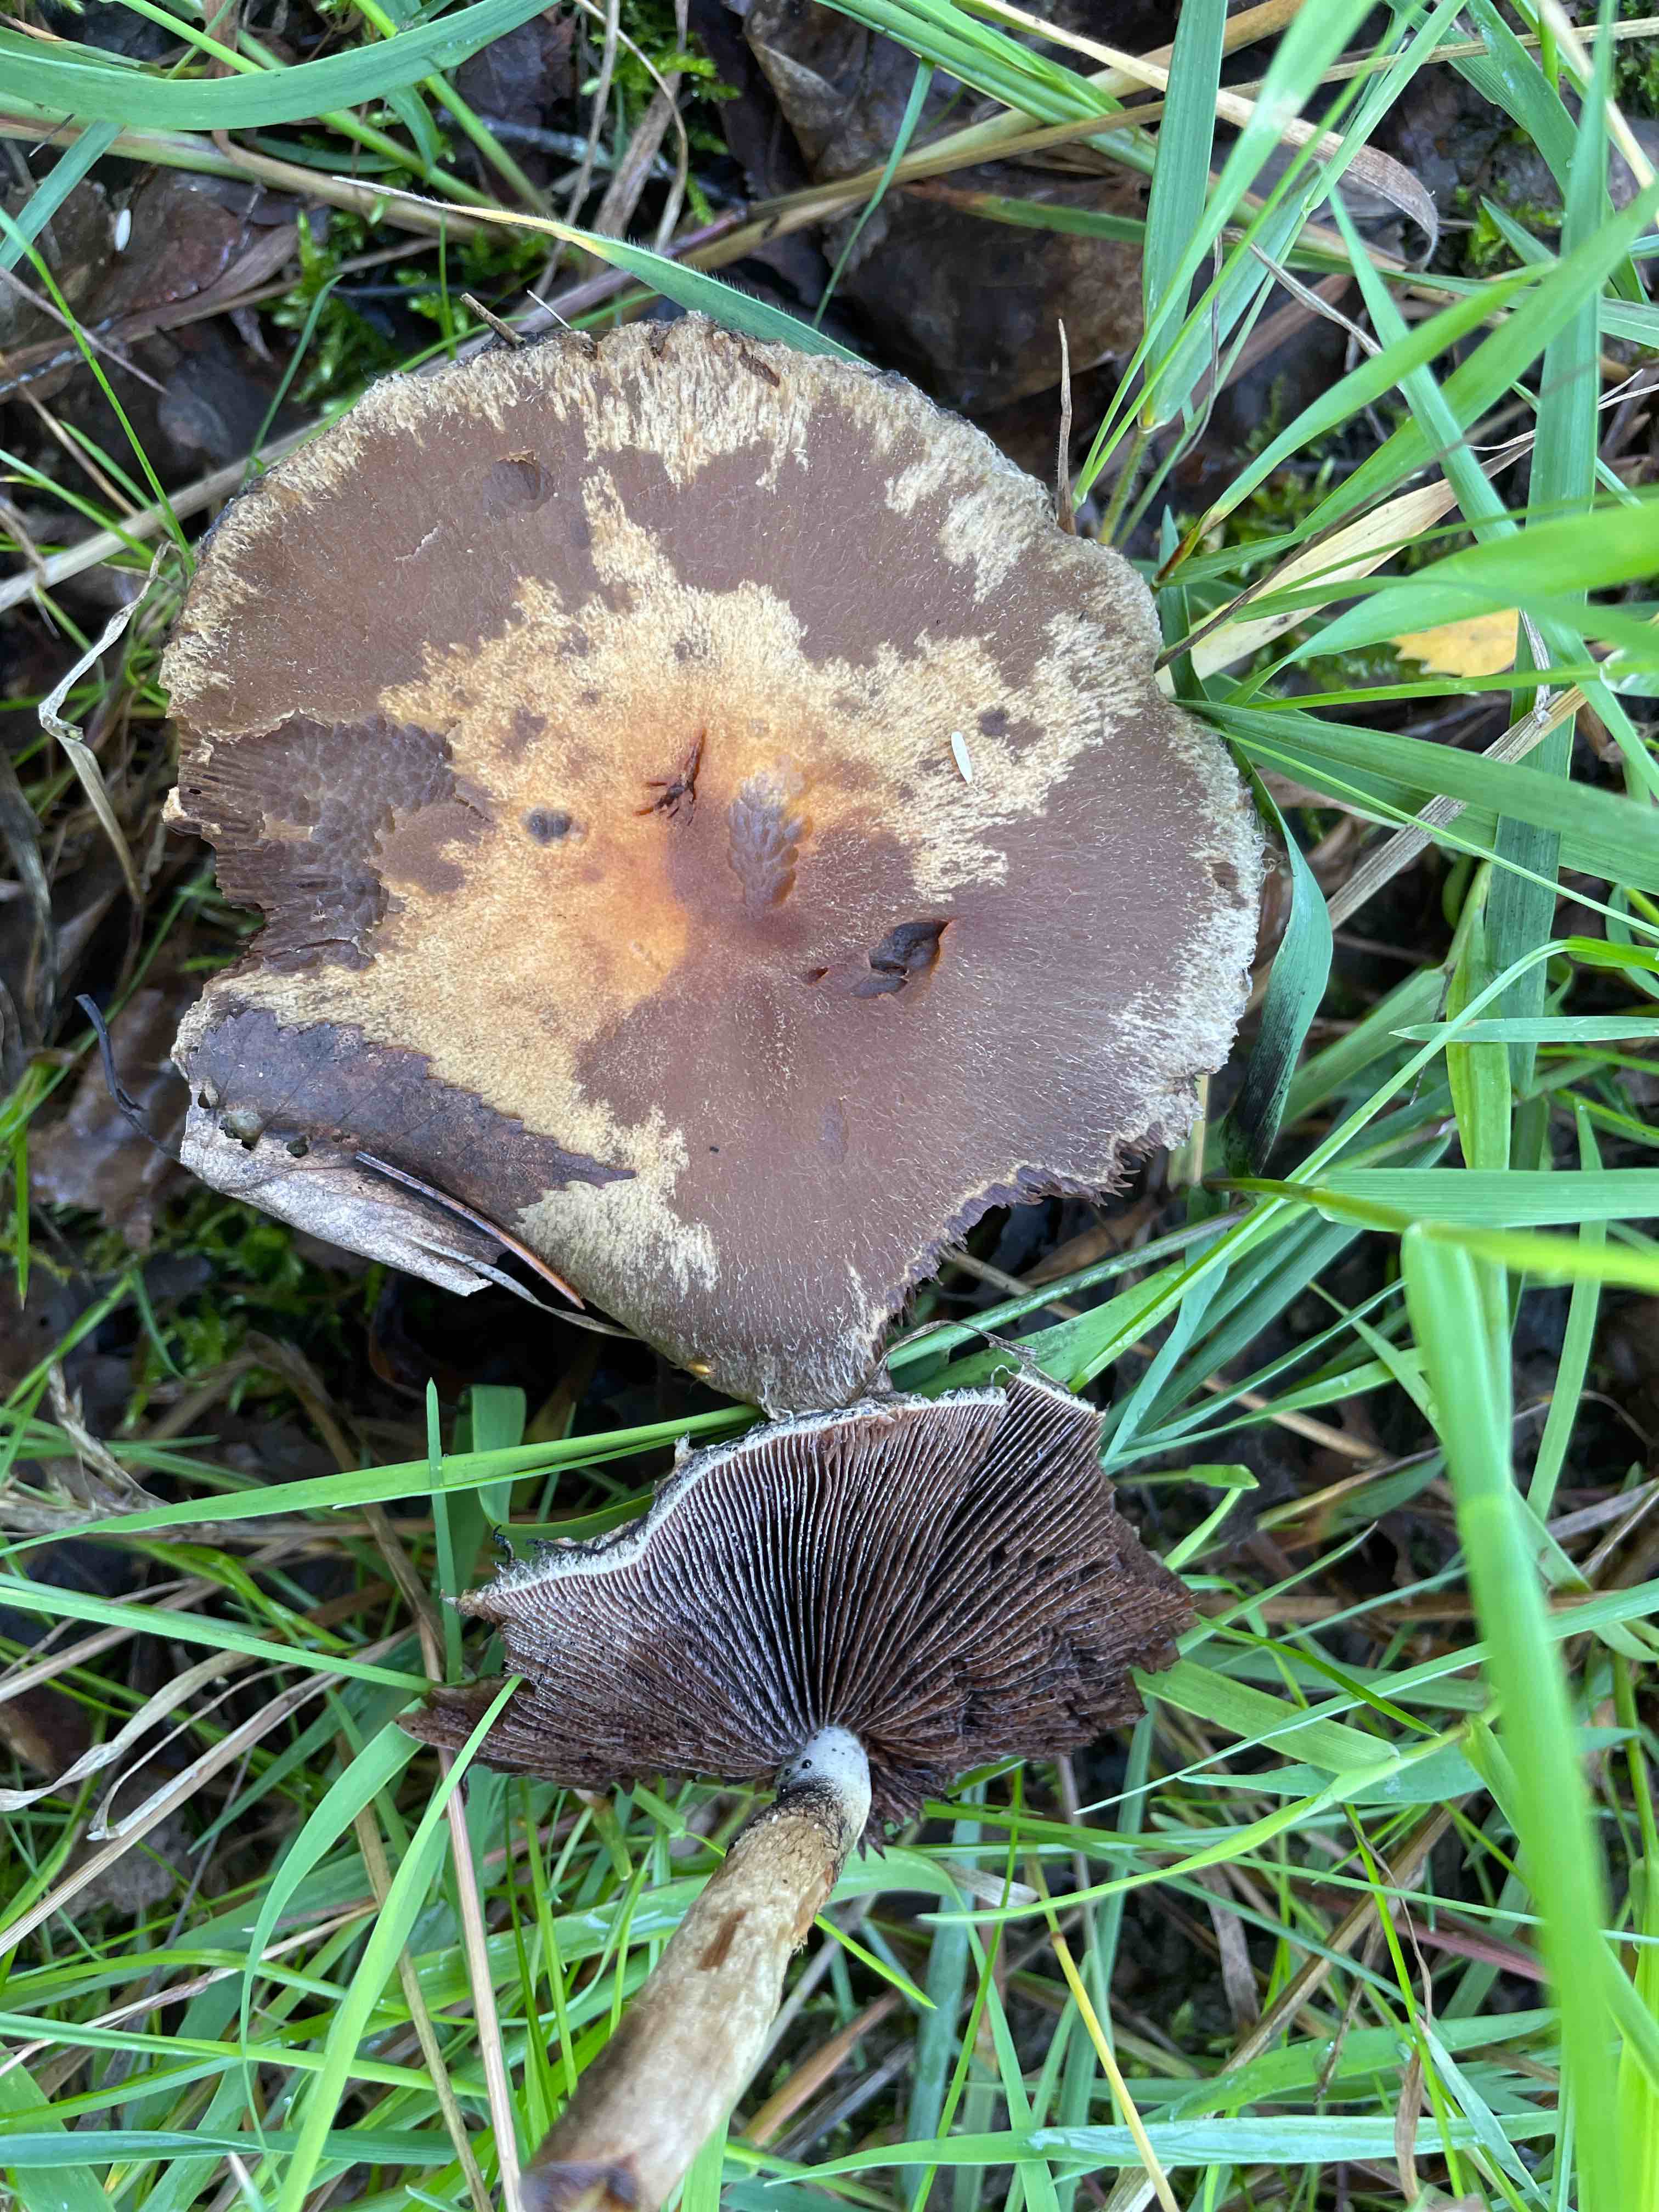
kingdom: Fungi
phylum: Basidiomycota
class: Agaricomycetes
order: Agaricales
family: Psathyrellaceae
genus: Lacrymaria
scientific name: Lacrymaria lacrymabunda
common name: grædende mørkhat
